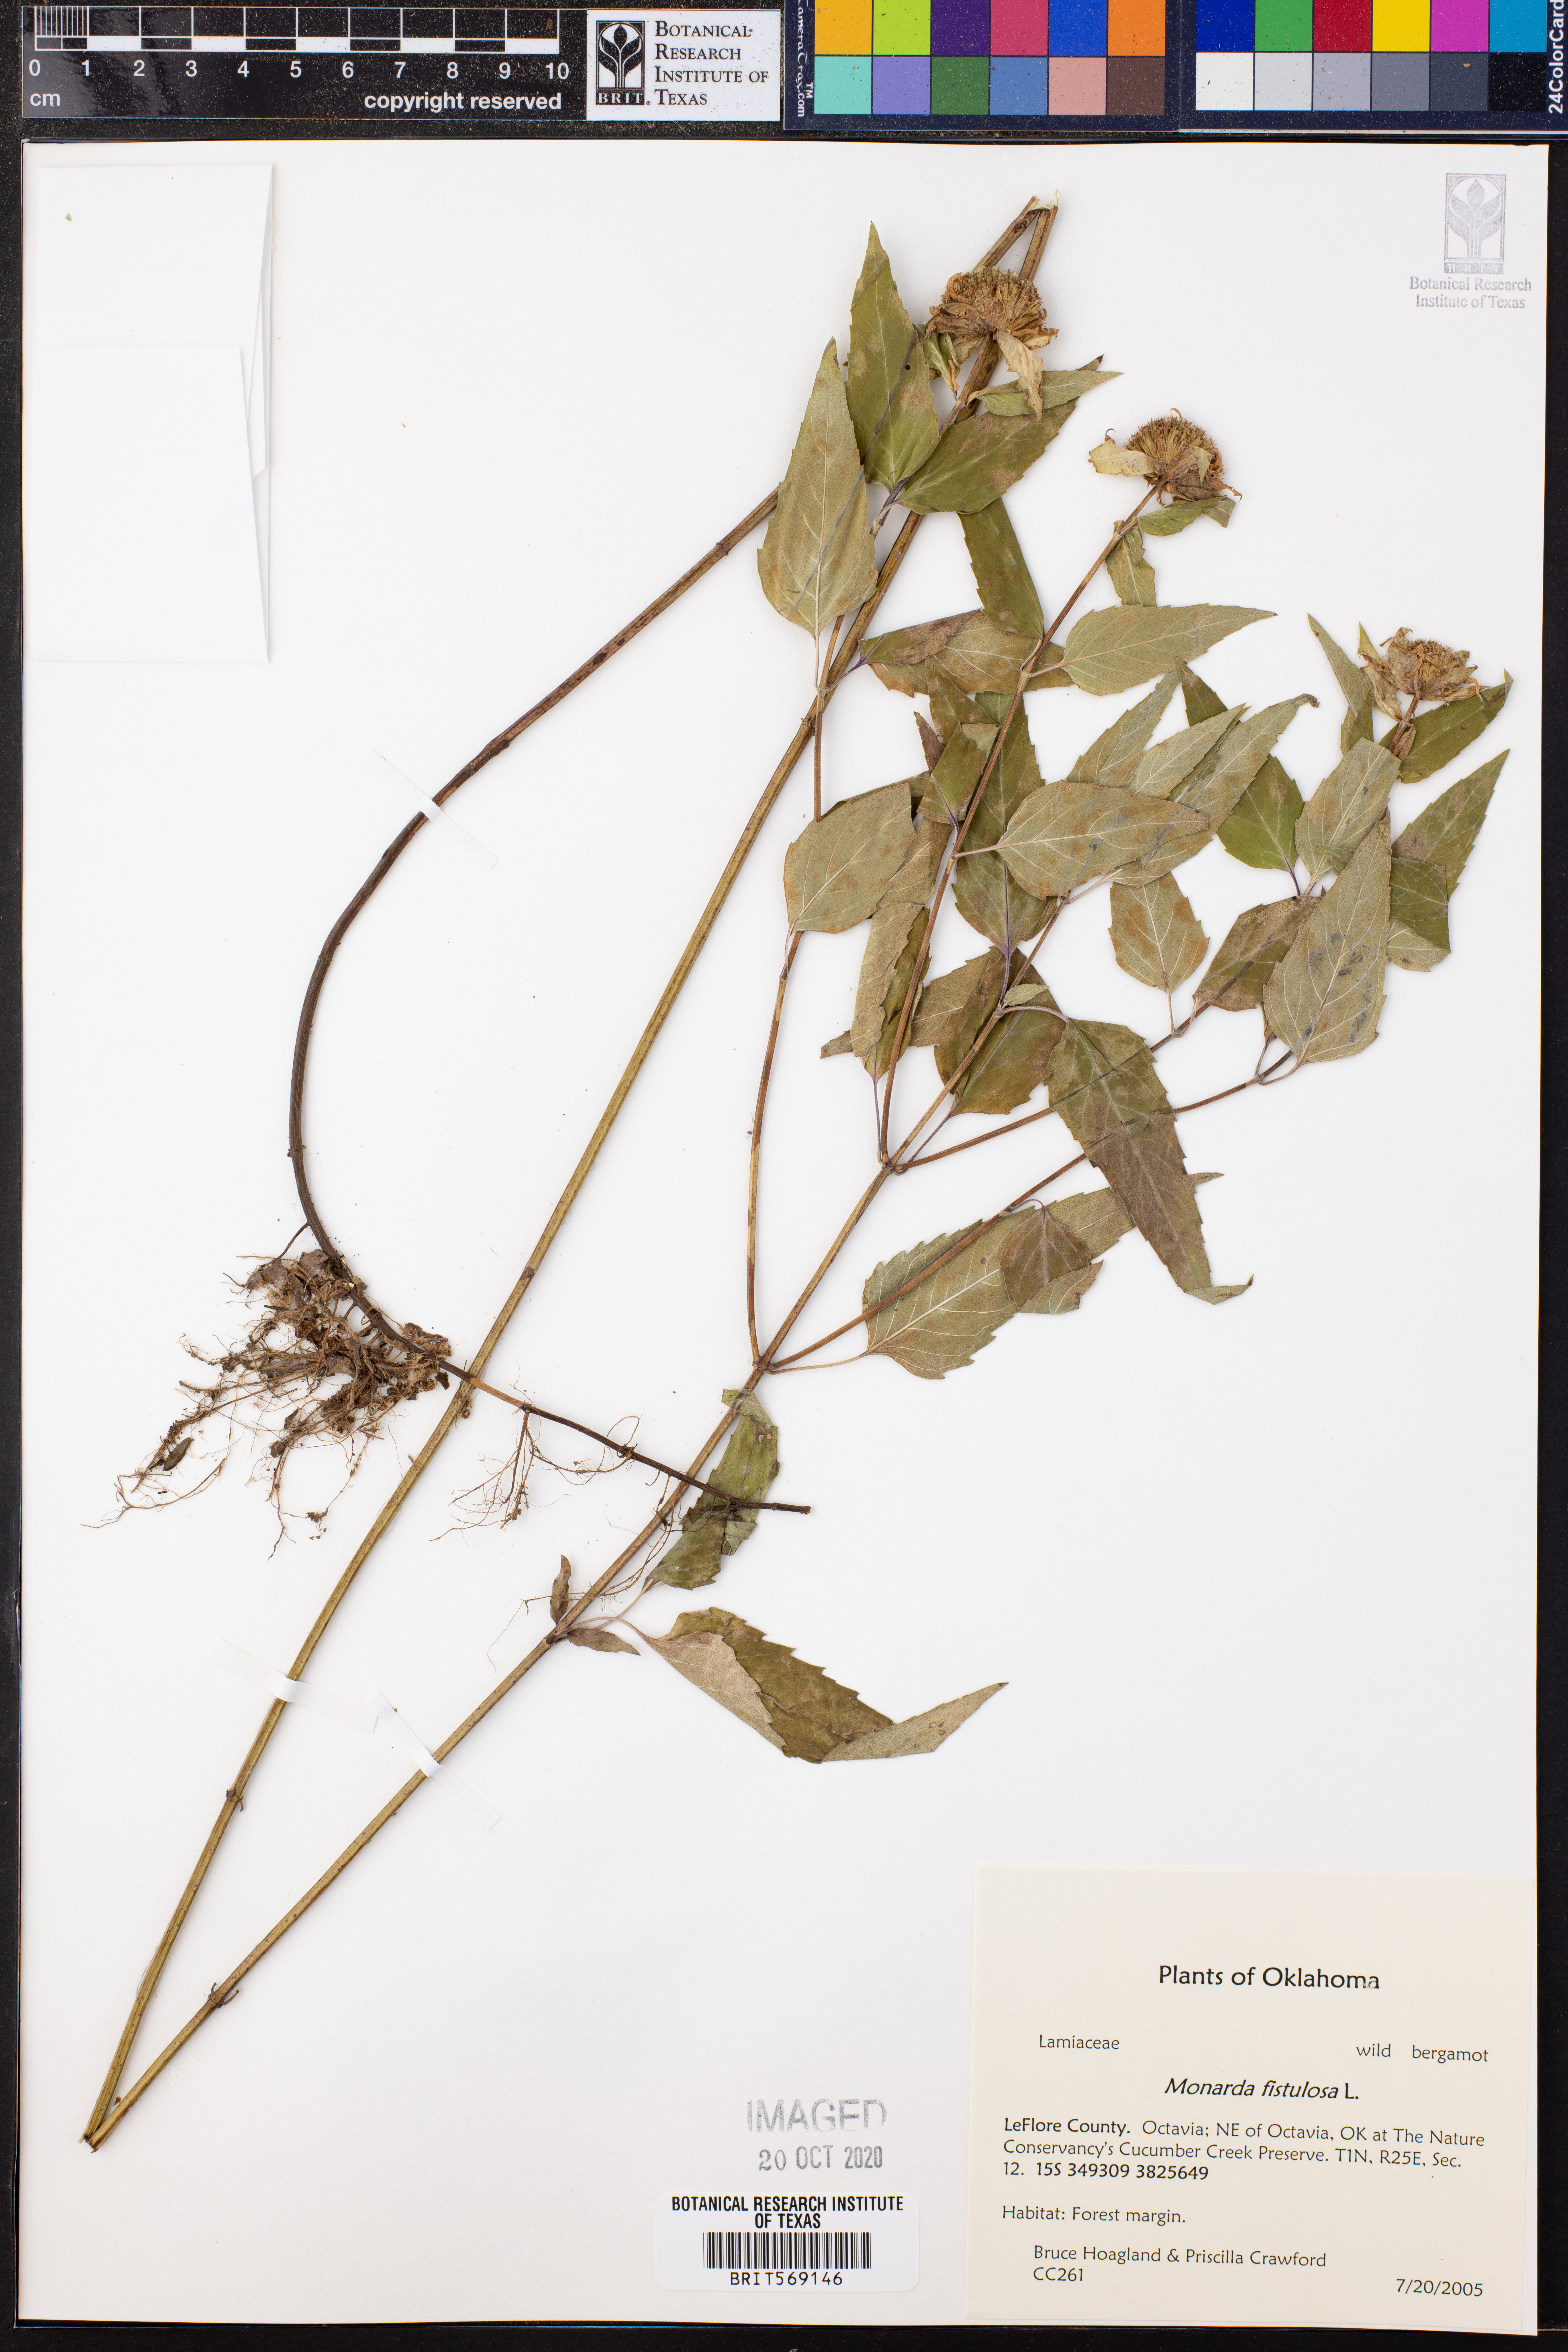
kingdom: Plantae
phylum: Tracheophyta
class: Magnoliopsida
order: Lamiales
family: Lamiaceae
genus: Monarda
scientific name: Monarda fistulosa
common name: Purple beebalm
